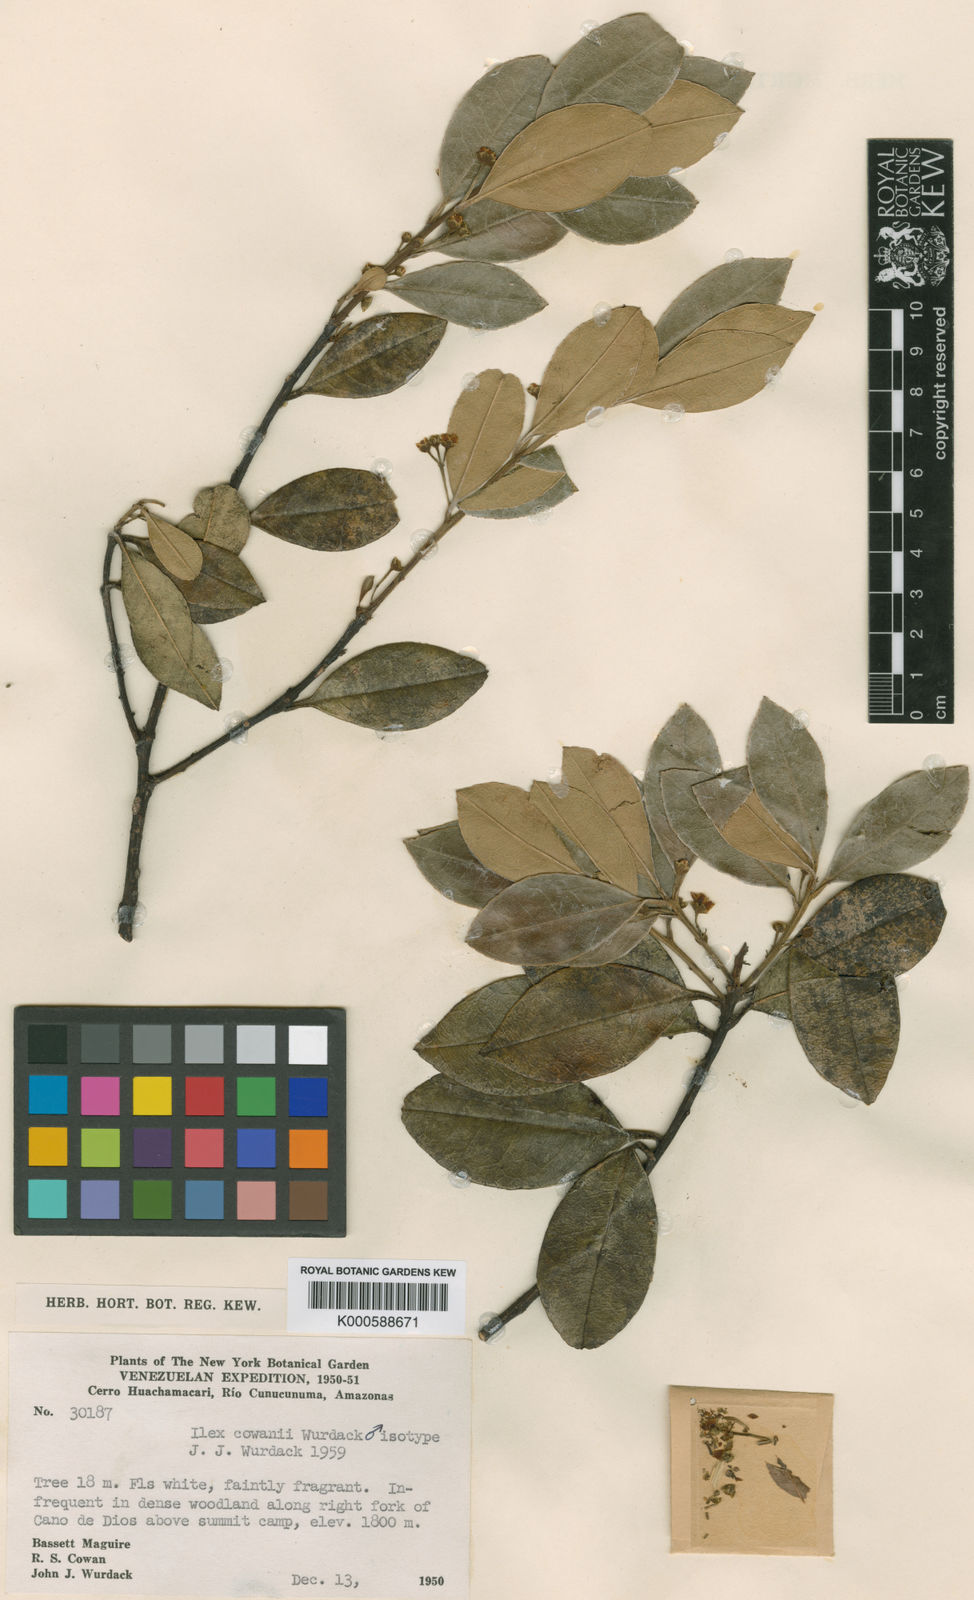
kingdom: Plantae
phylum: Tracheophyta
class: Magnoliopsida
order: Aquifoliales
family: Aquifoliaceae
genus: Ilex
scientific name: Ilex cowanii
